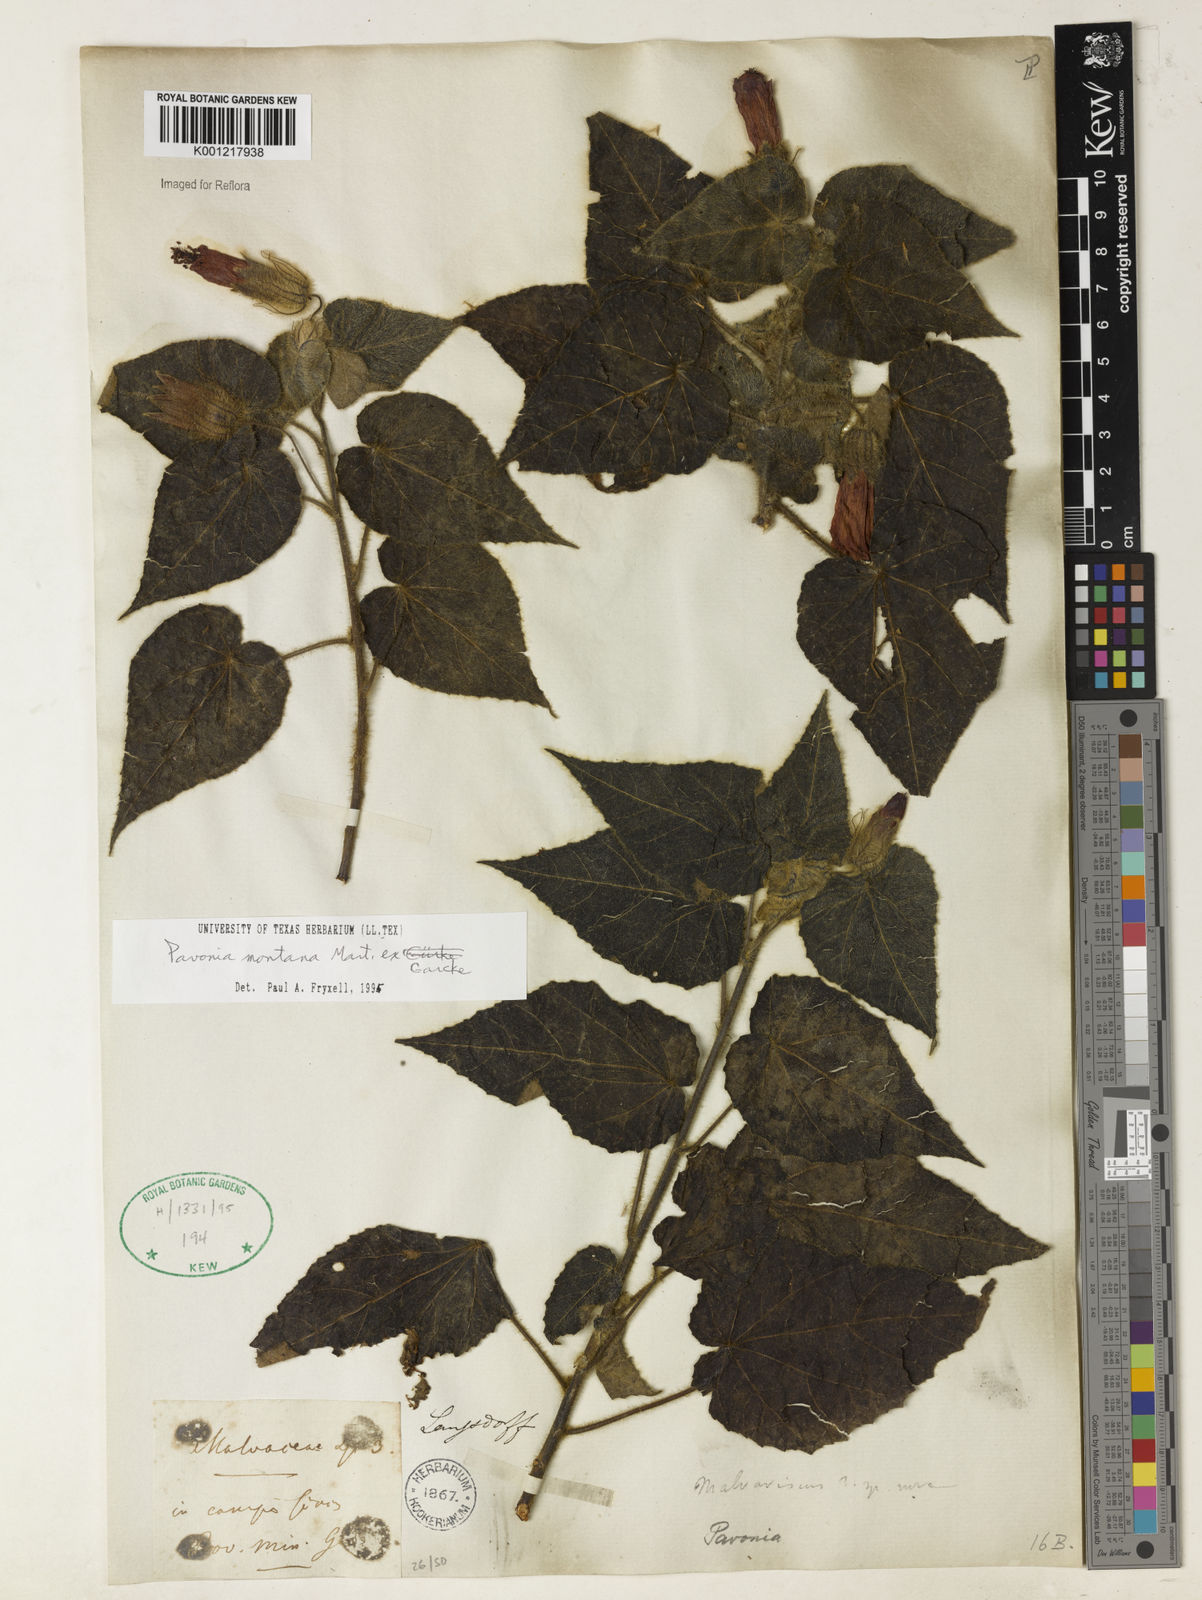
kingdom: Plantae
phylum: Tracheophyta
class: Magnoliopsida
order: Malvales
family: Malvaceae
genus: Pavonia
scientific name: Pavonia
